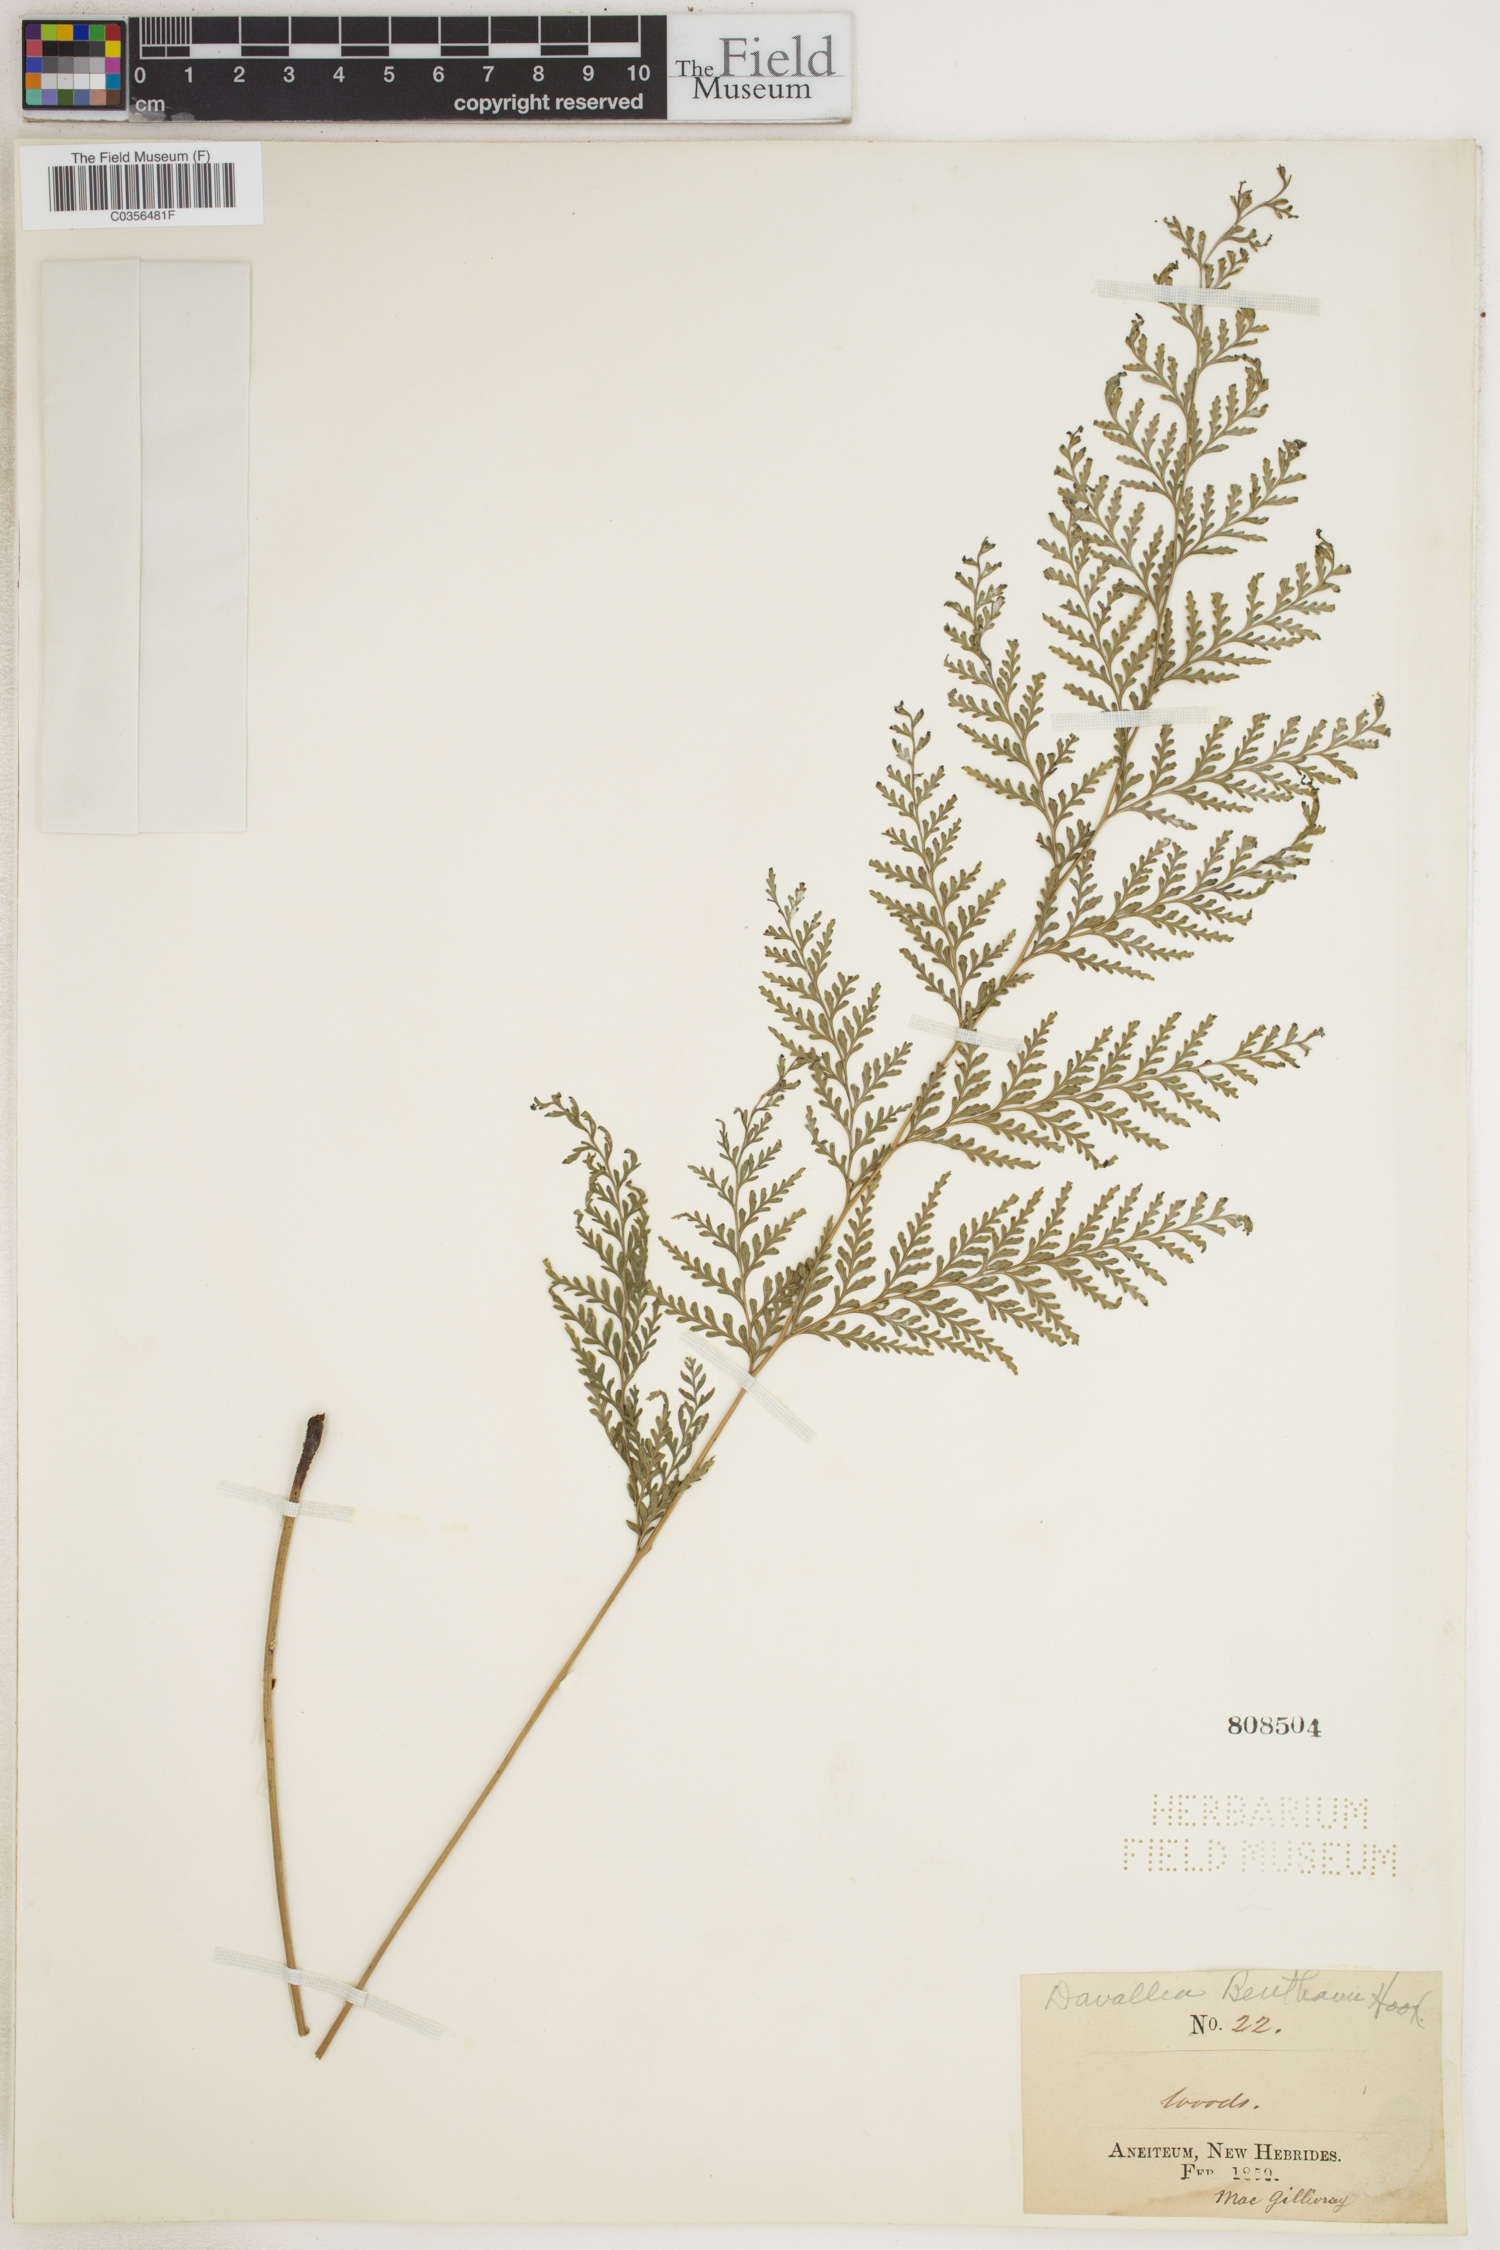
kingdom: Plantae
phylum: Tracheophyta
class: Polypodiopsida
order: Polypodiales
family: Davalliaceae
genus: Davallia
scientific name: Davallia
